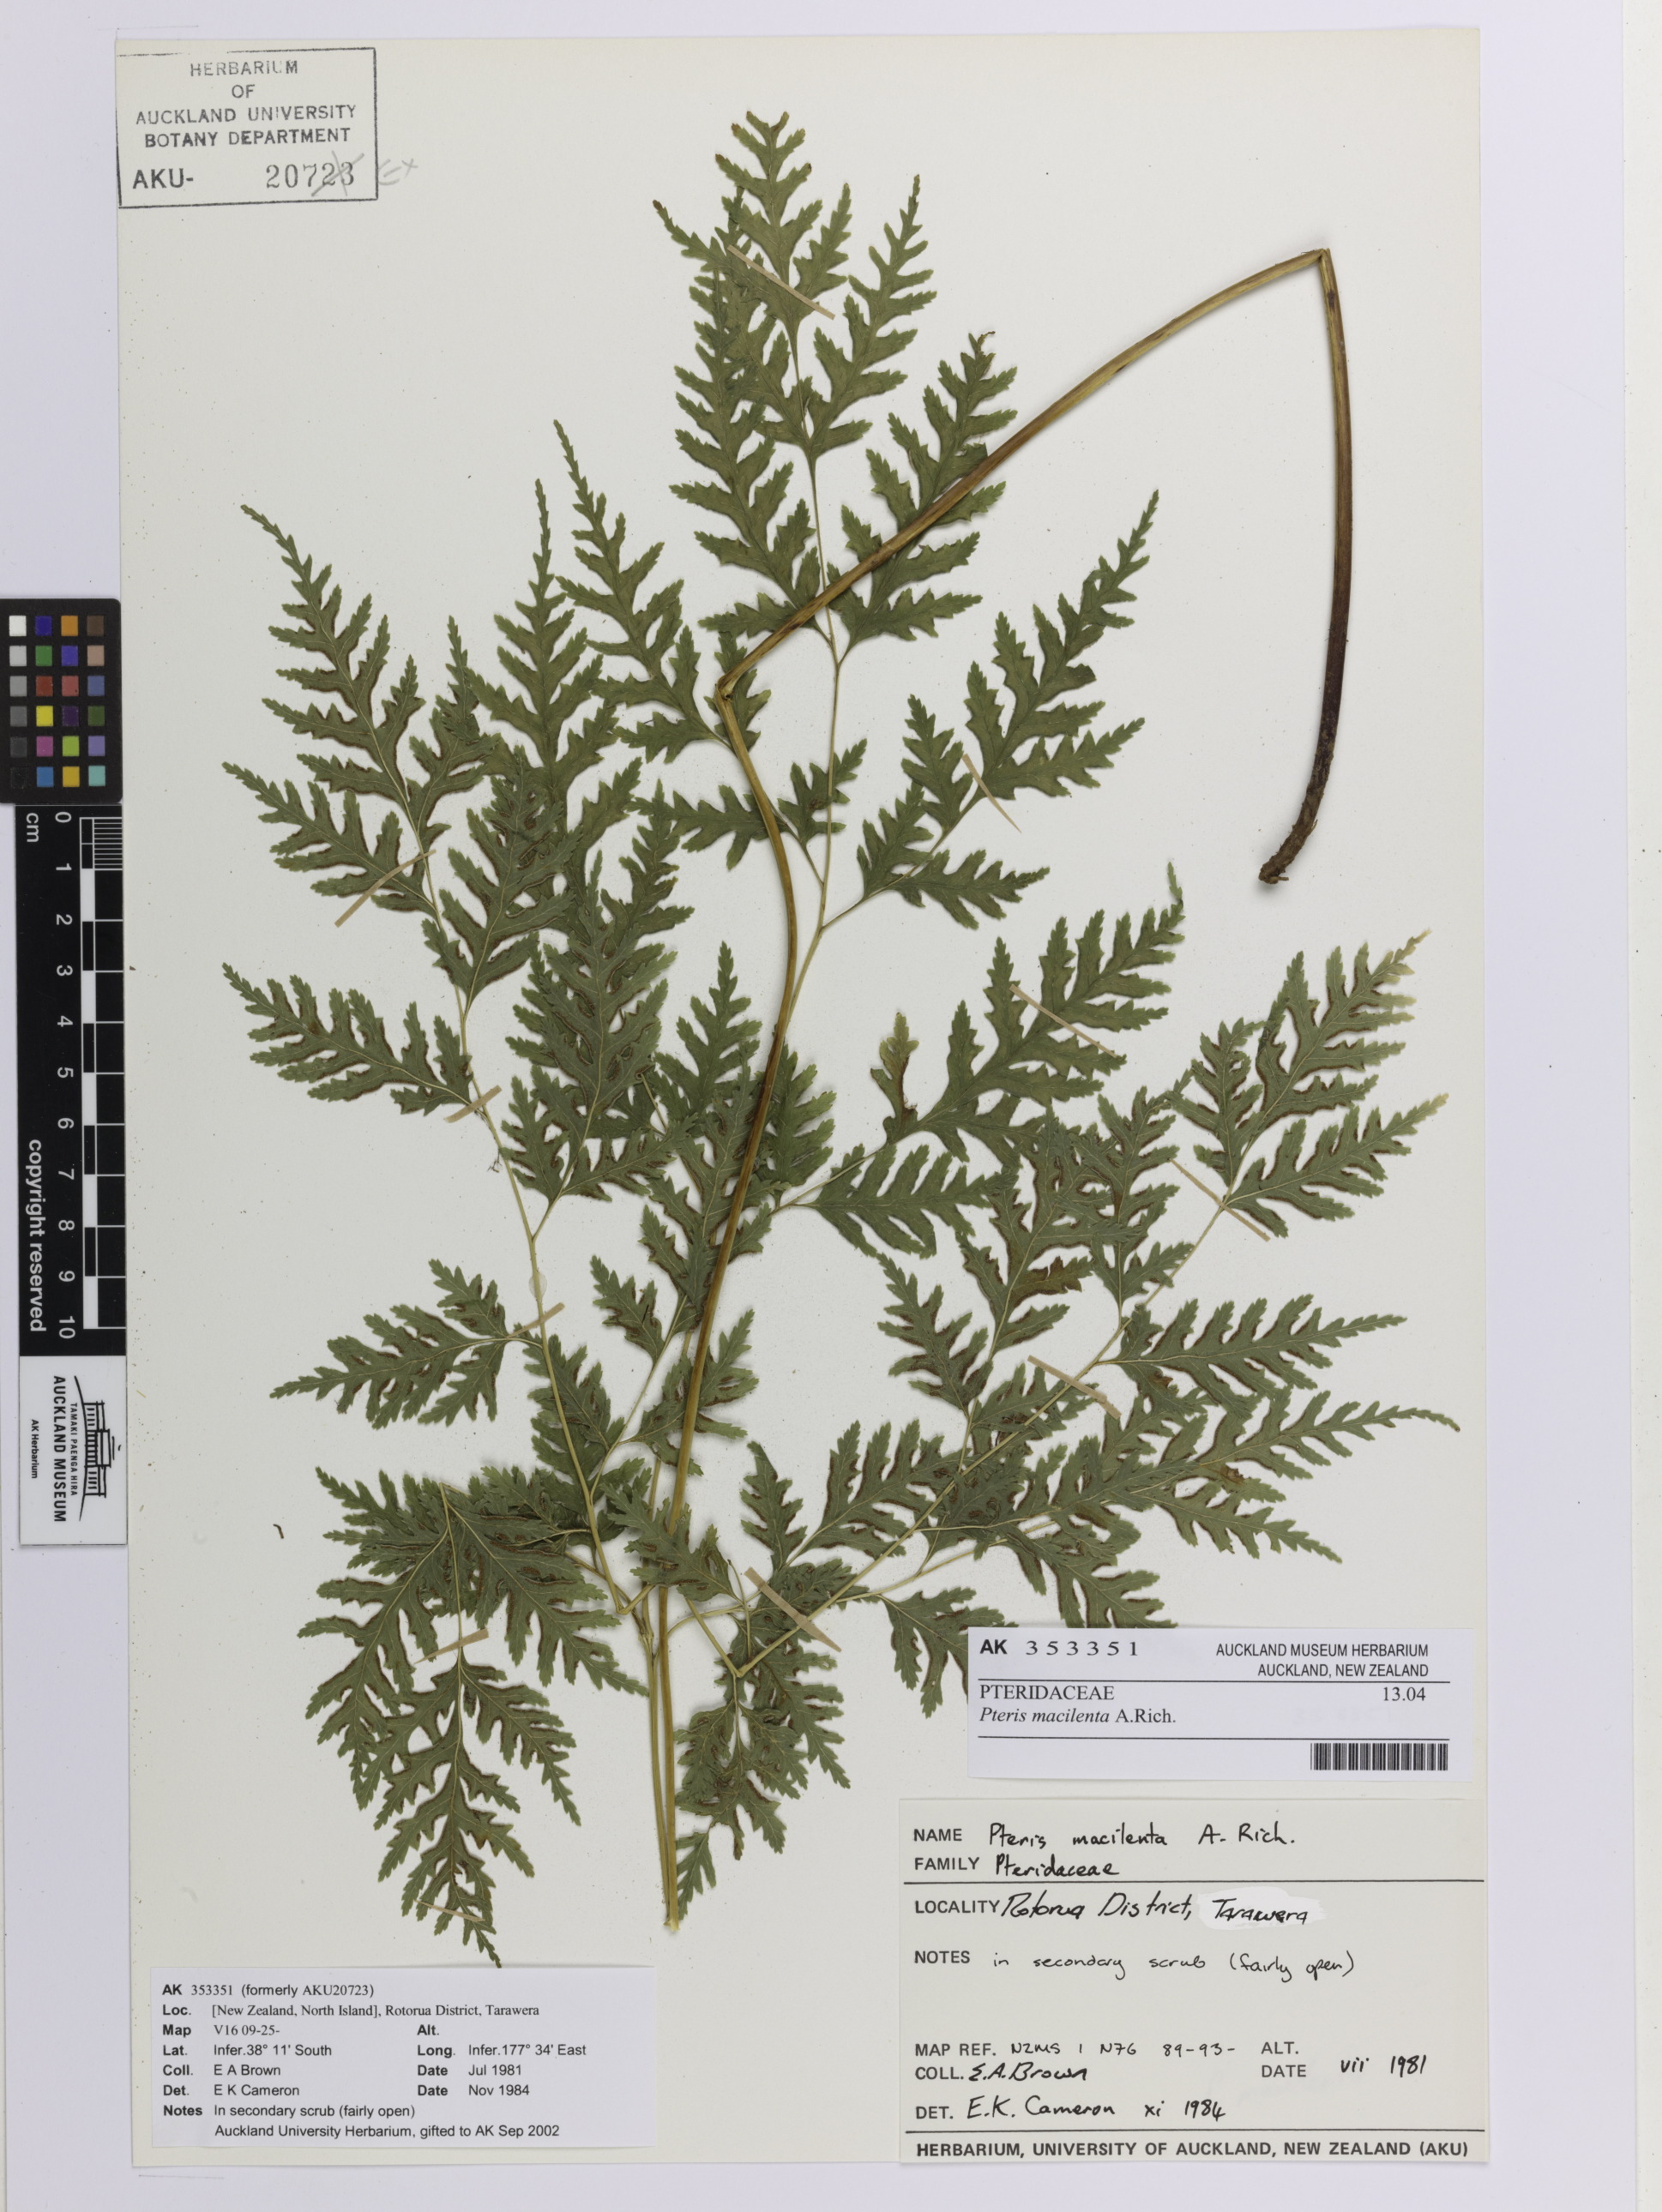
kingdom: Plantae
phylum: Tracheophyta
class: Polypodiopsida
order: Polypodiales
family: Pteridaceae
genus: Pteris
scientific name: Pteris macilenta
